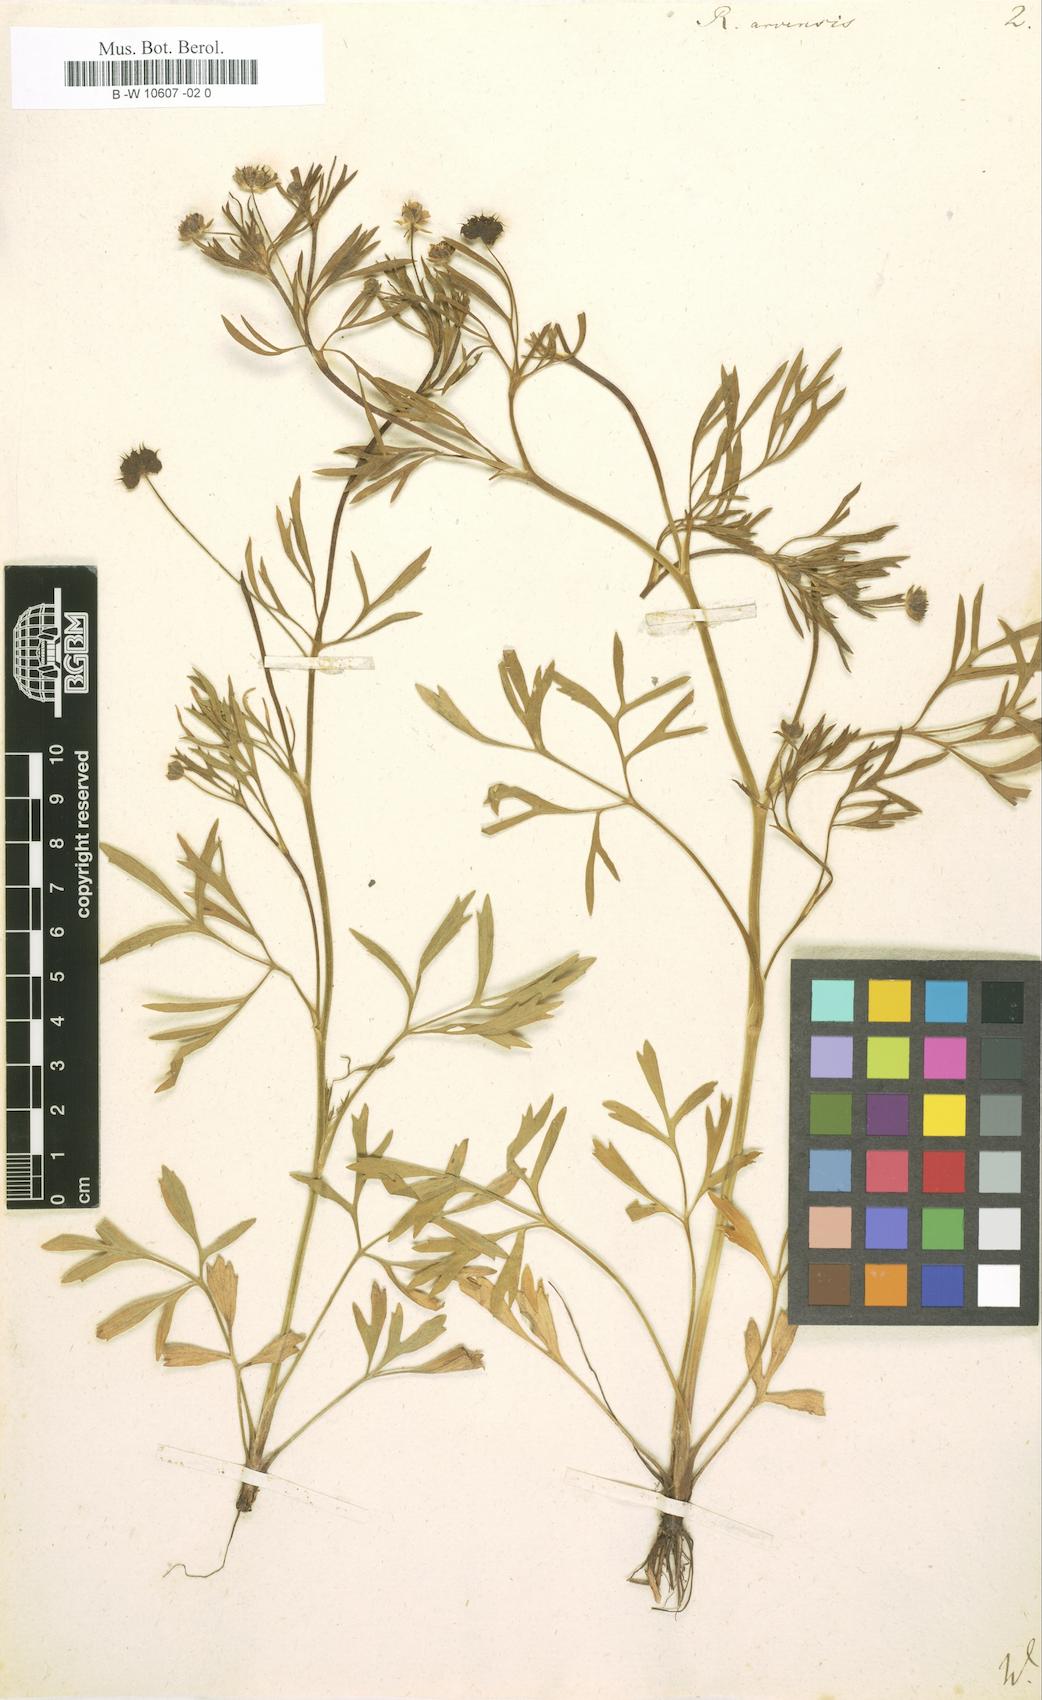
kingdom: Plantae
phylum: Tracheophyta
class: Magnoliopsida
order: Ranunculales
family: Ranunculaceae
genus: Ranunculus
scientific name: Ranunculus arvensis
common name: Corn buttercup
